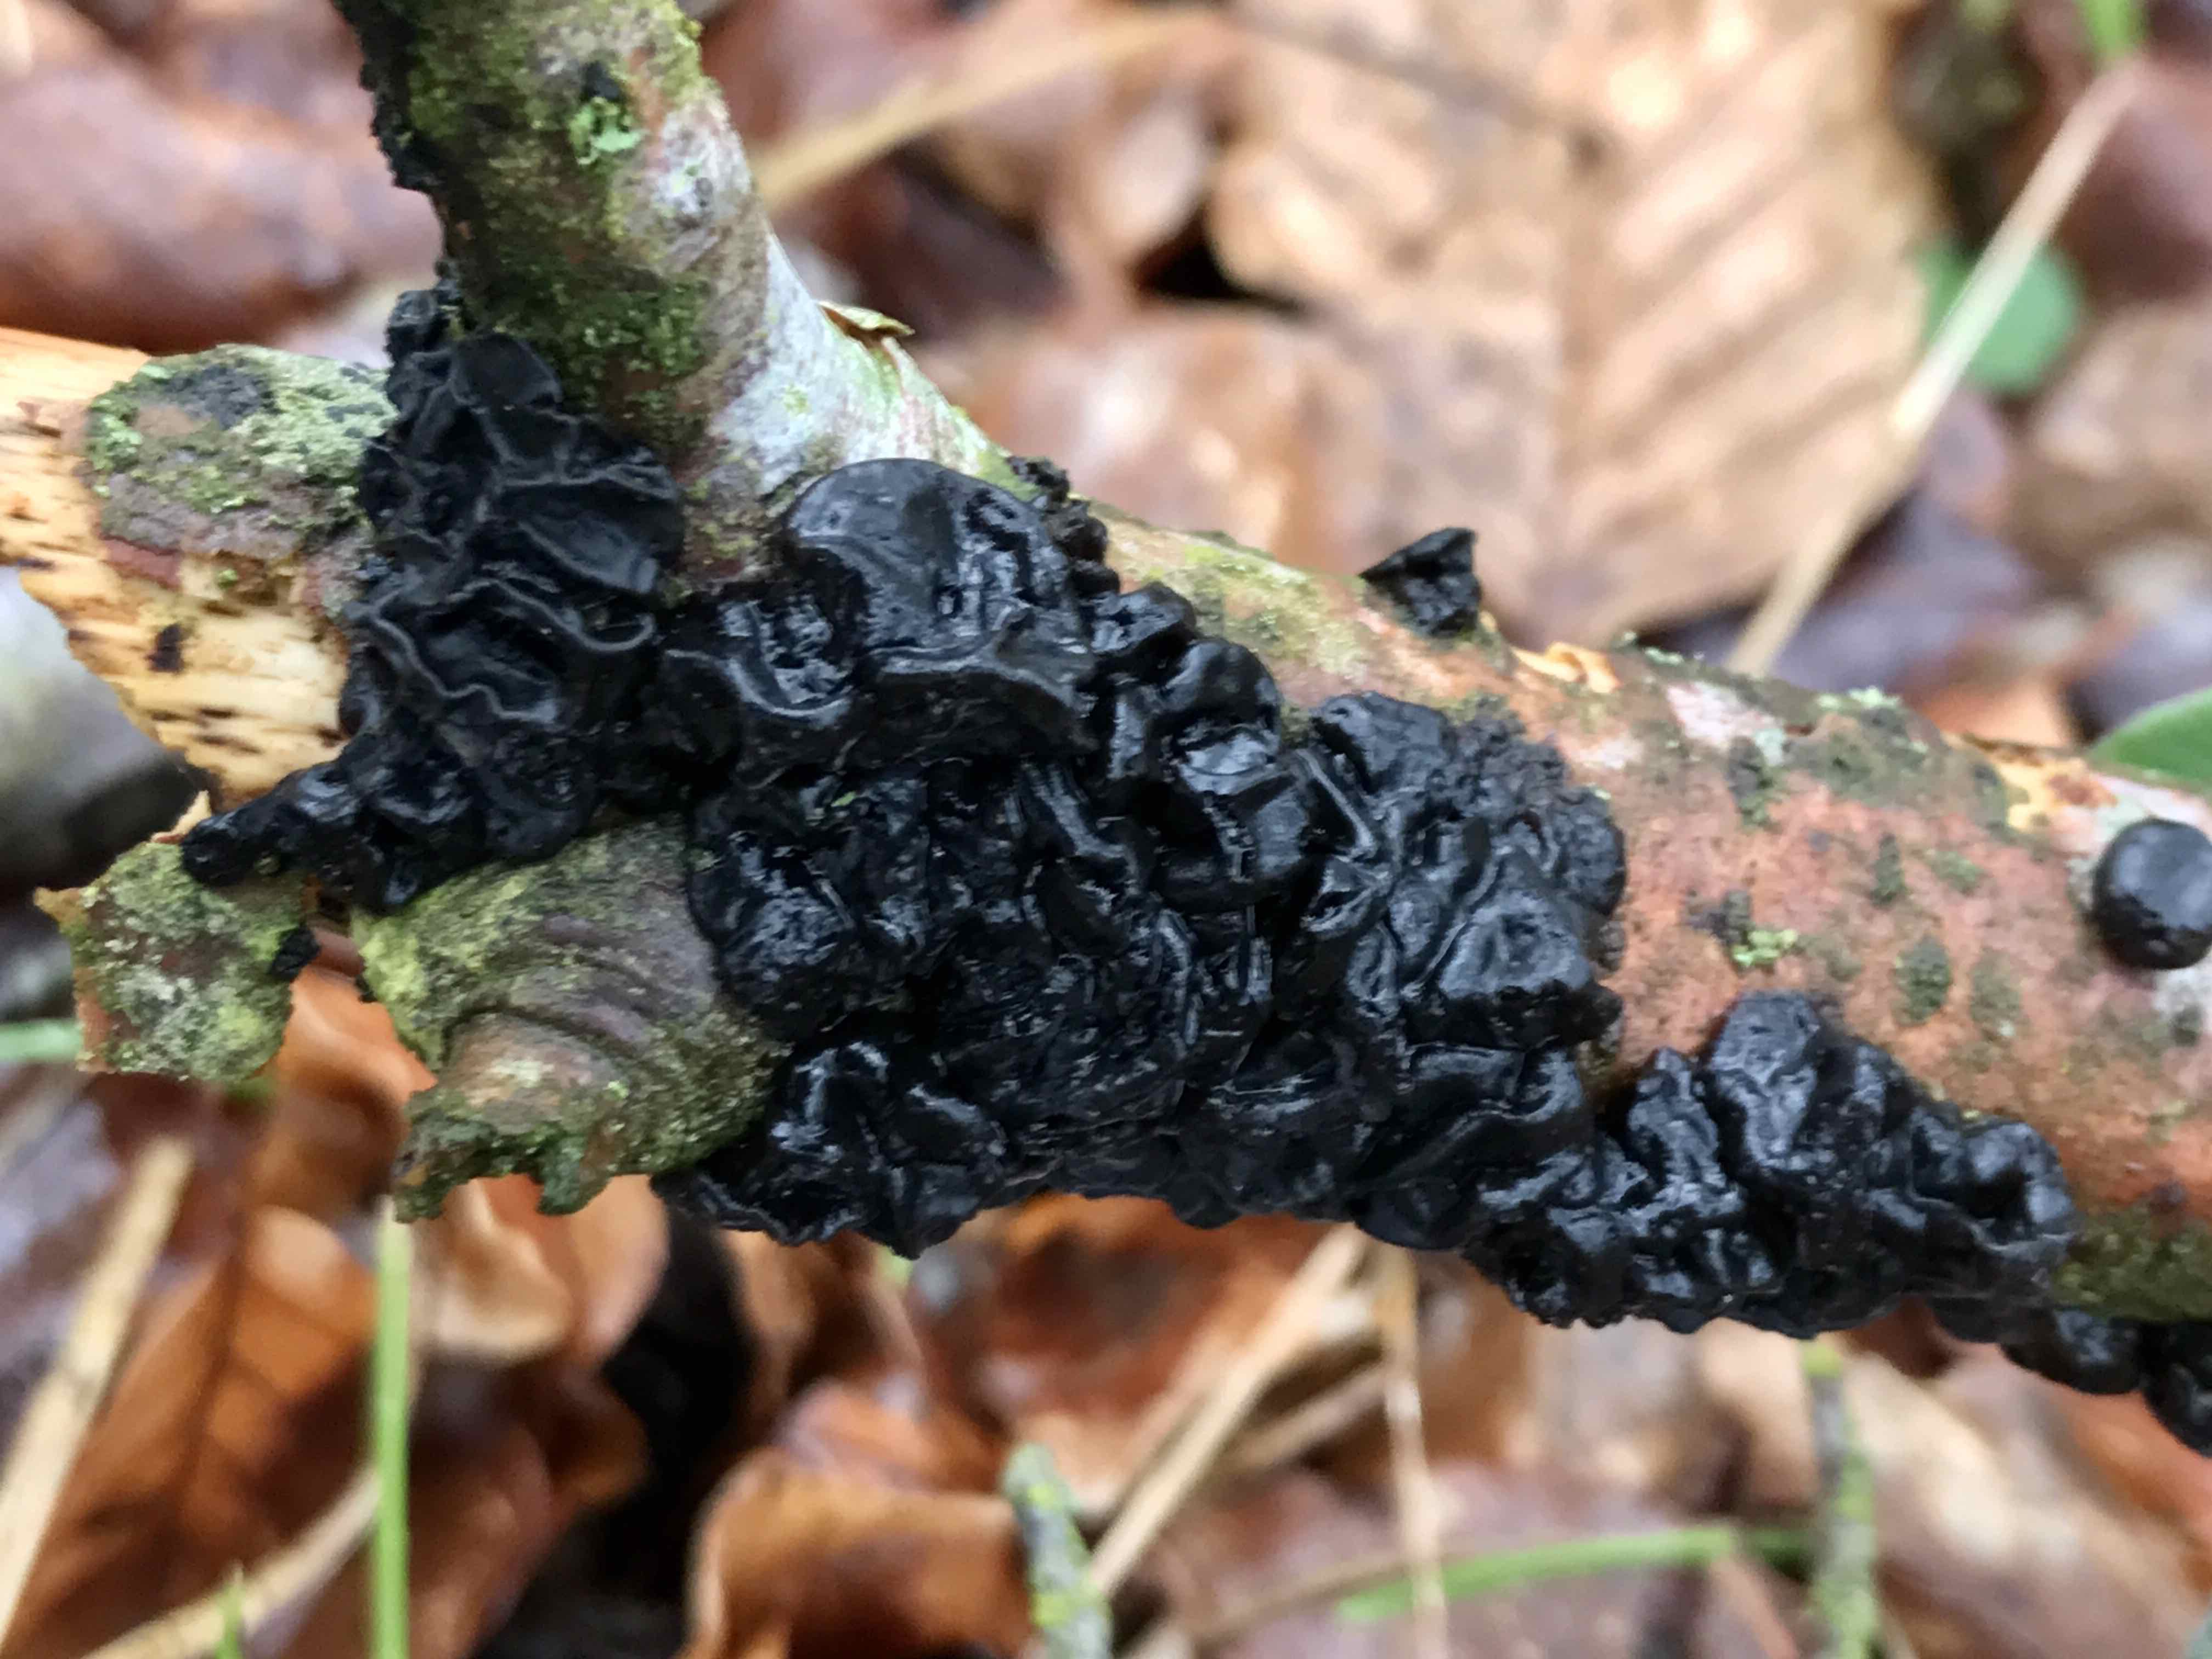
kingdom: Fungi
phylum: Basidiomycota
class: Agaricomycetes
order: Auriculariales
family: Auriculariaceae
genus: Exidia
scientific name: Exidia nigricans
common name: almindelig bævretop
